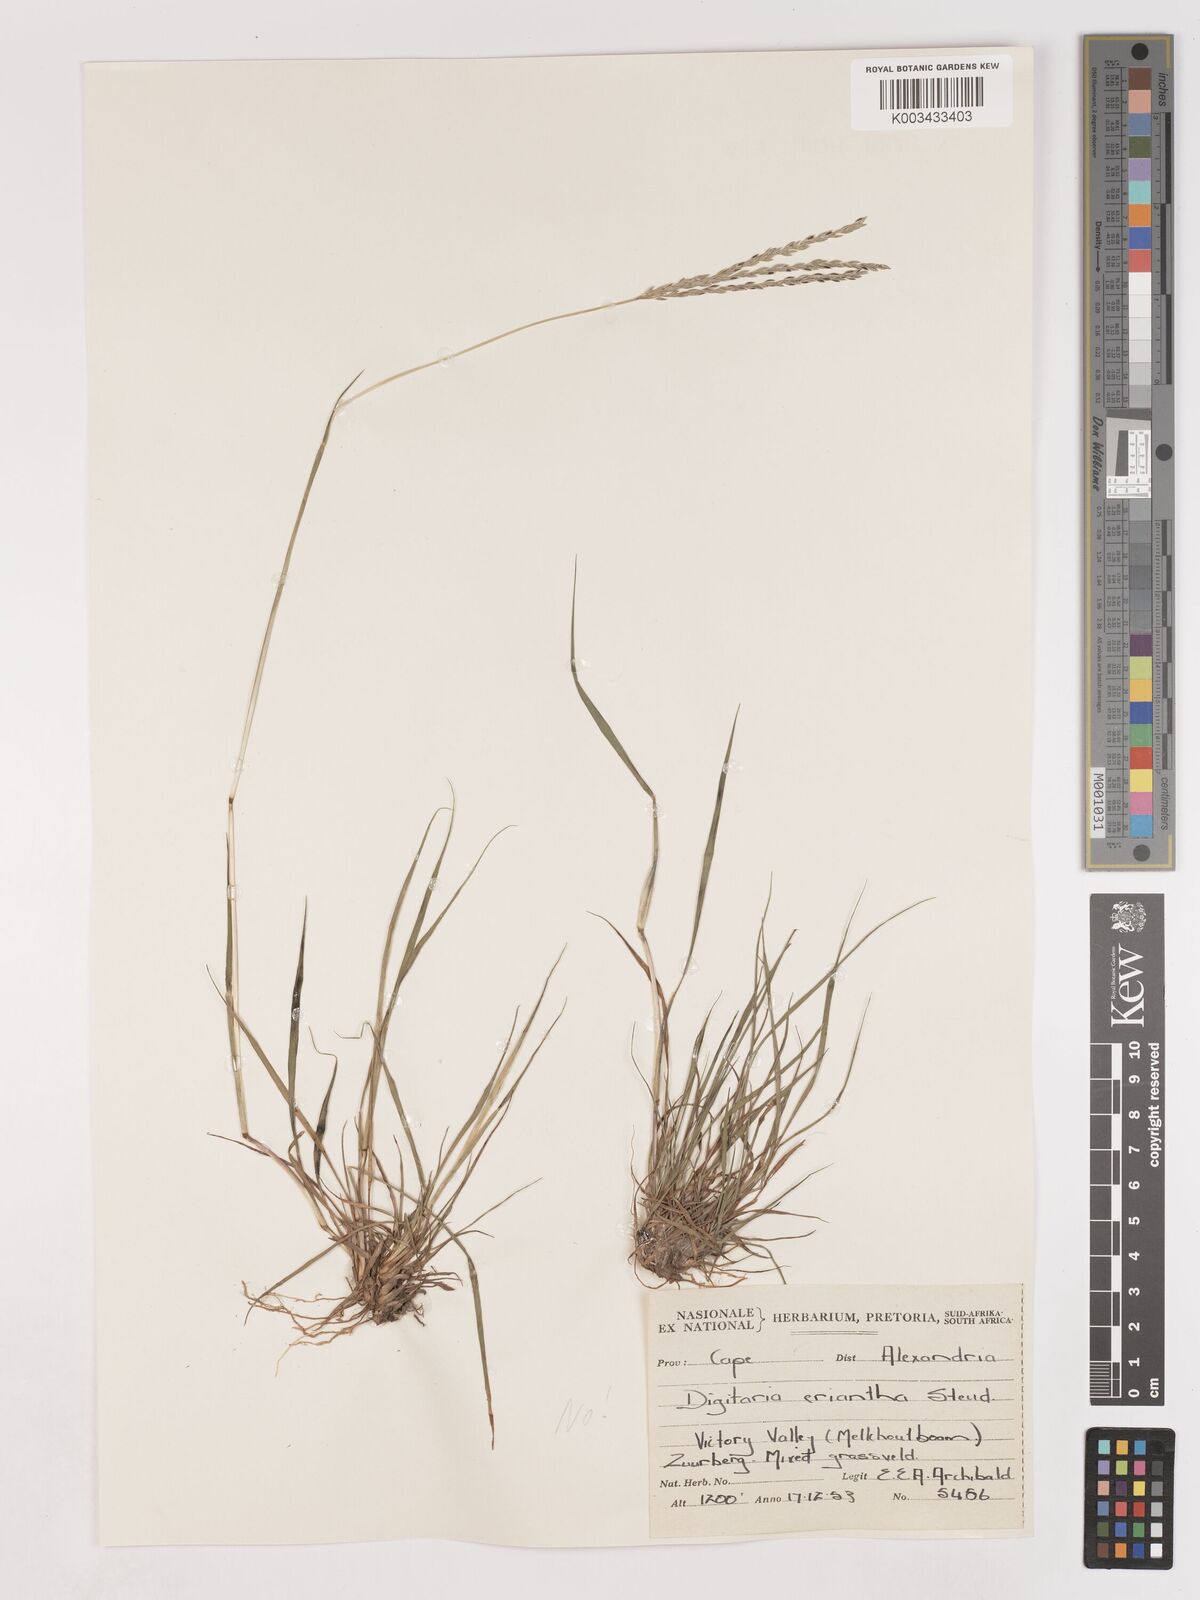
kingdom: Plantae
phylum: Tracheophyta
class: Liliopsida
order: Poales
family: Poaceae
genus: Digitaria
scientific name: Digitaria eriantha
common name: Digitgrass
